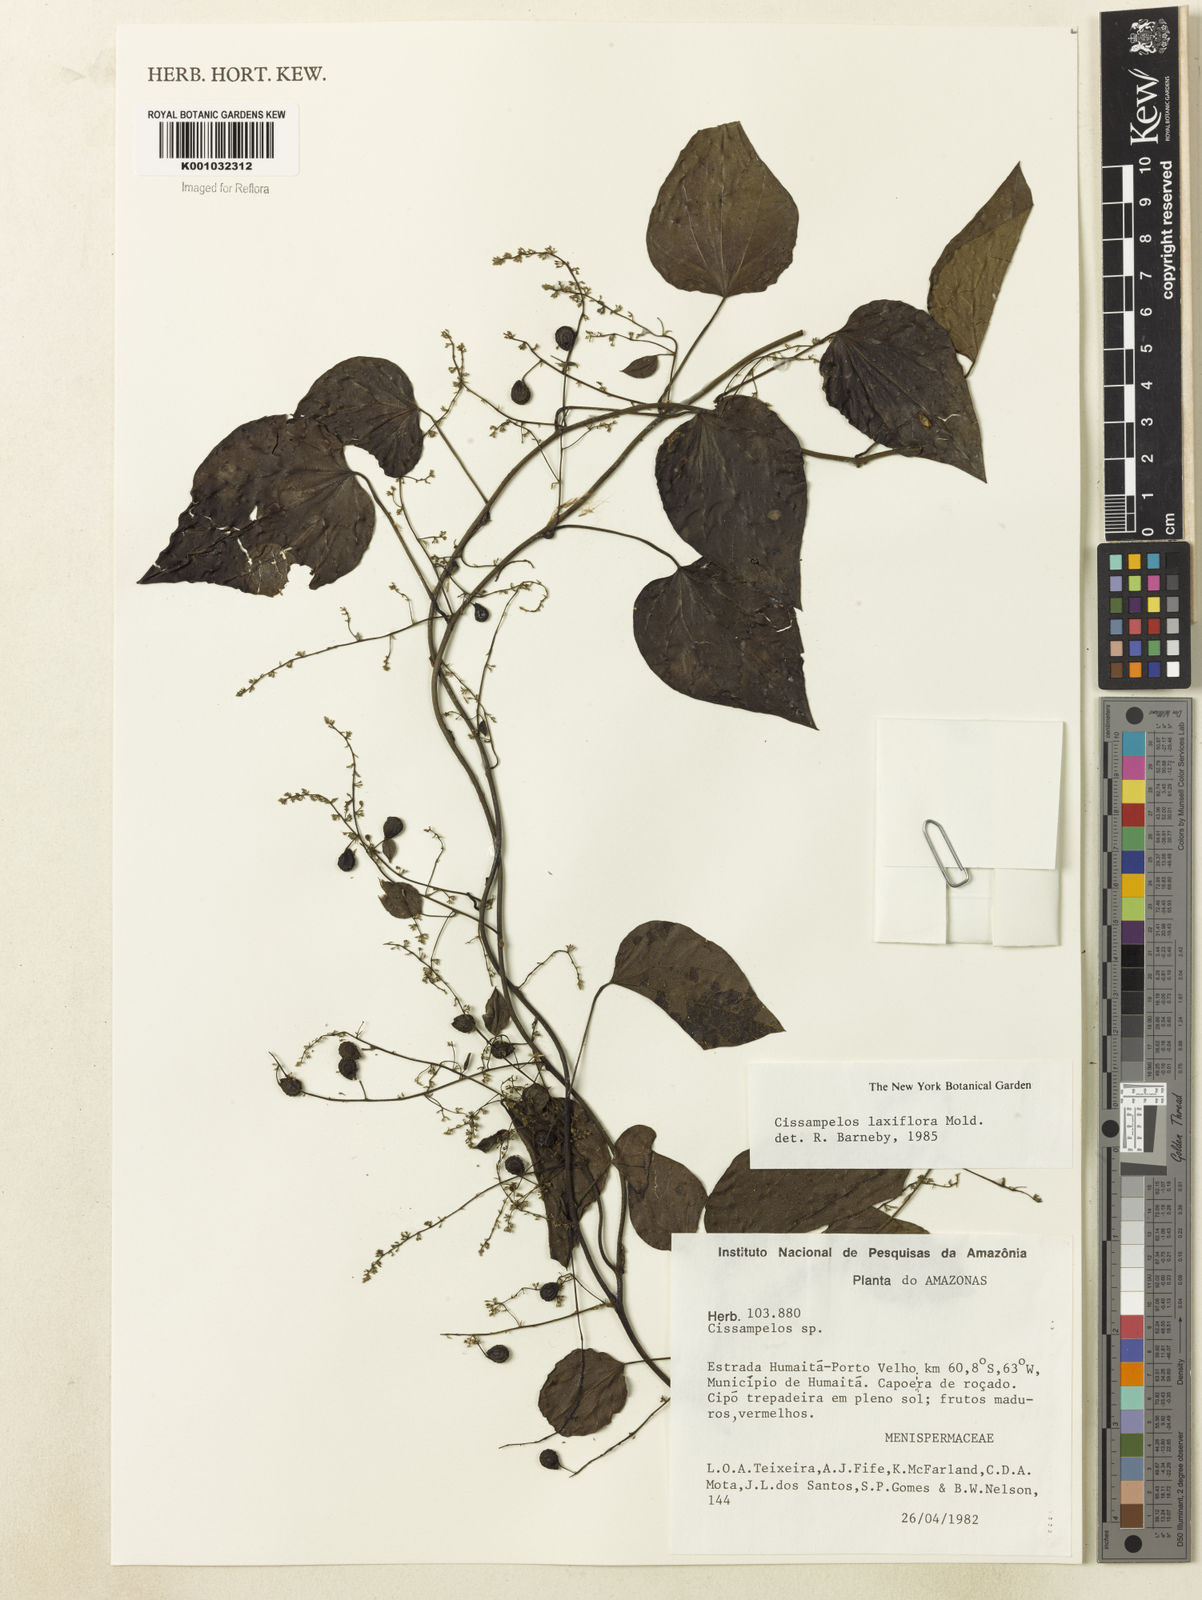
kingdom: Plantae
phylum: Tracheophyta
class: Magnoliopsida
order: Ranunculales
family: Menispermaceae
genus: Cissampelos
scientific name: Cissampelos laxiflora
